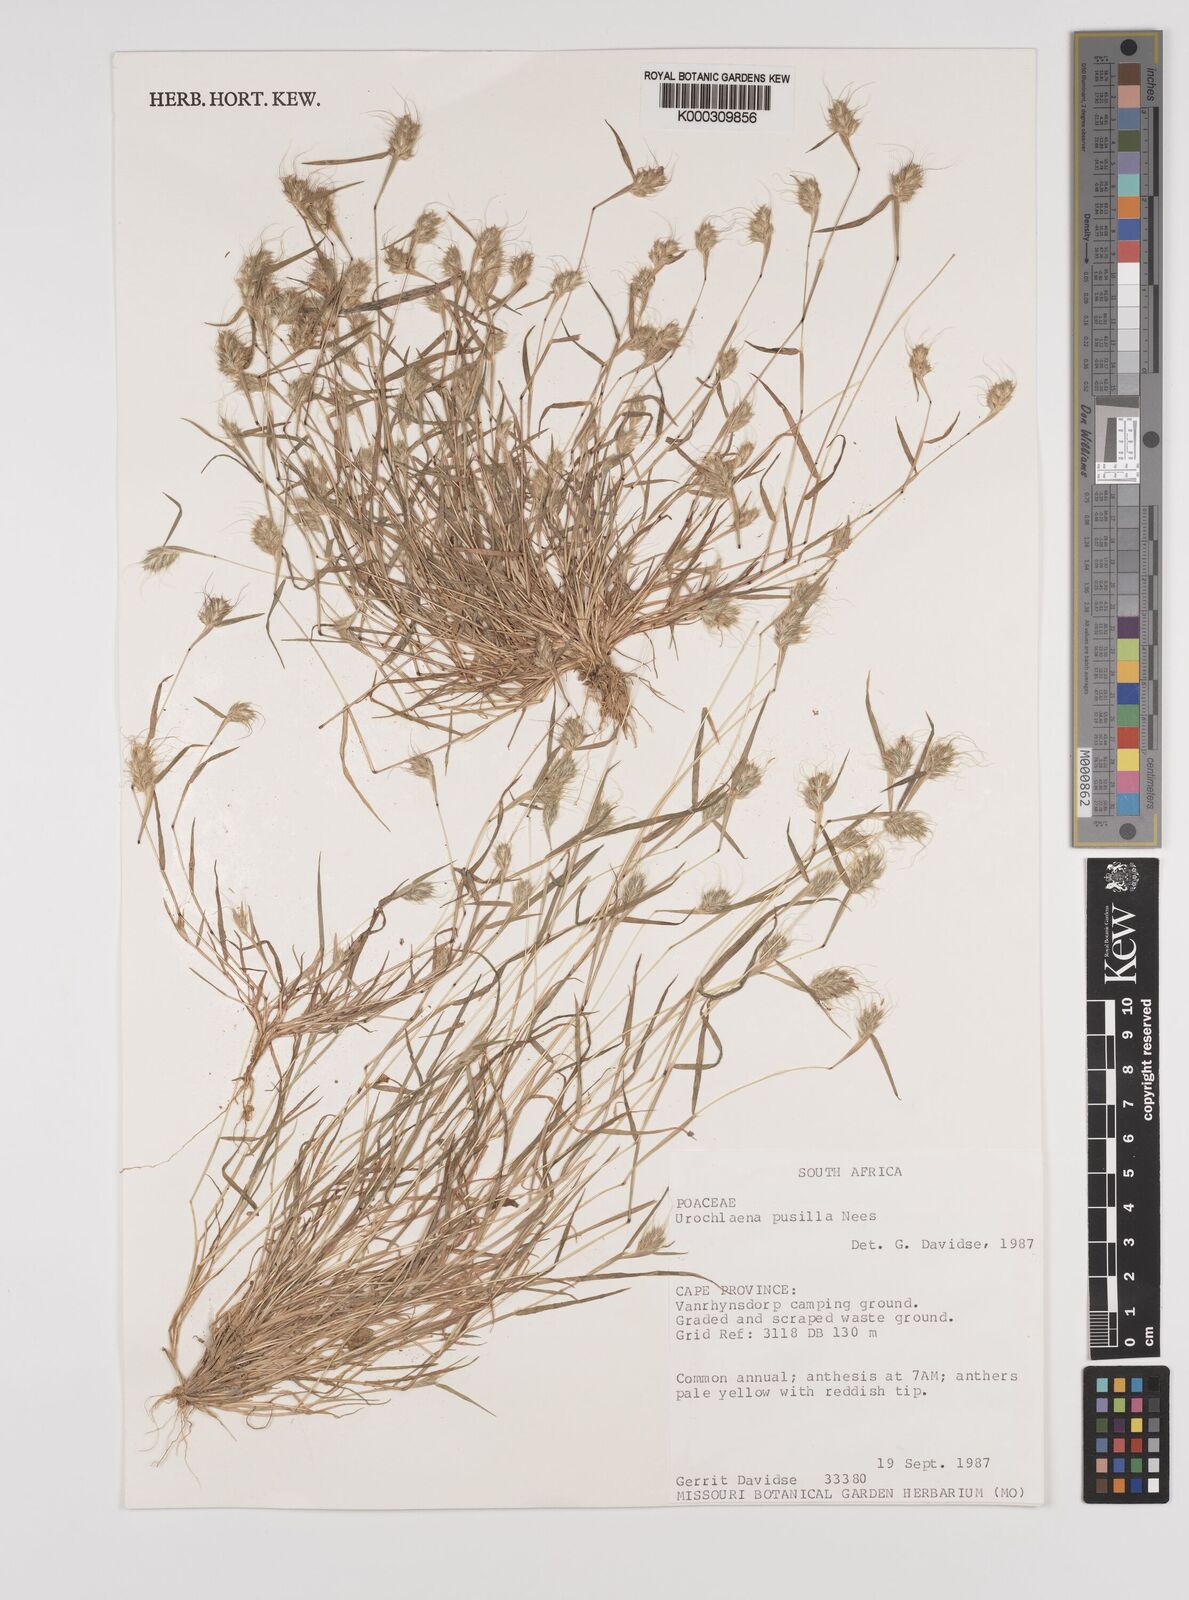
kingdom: Plantae
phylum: Tracheophyta
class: Liliopsida
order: Poales
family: Poaceae
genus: Tribolium
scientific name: Tribolium pusillum
